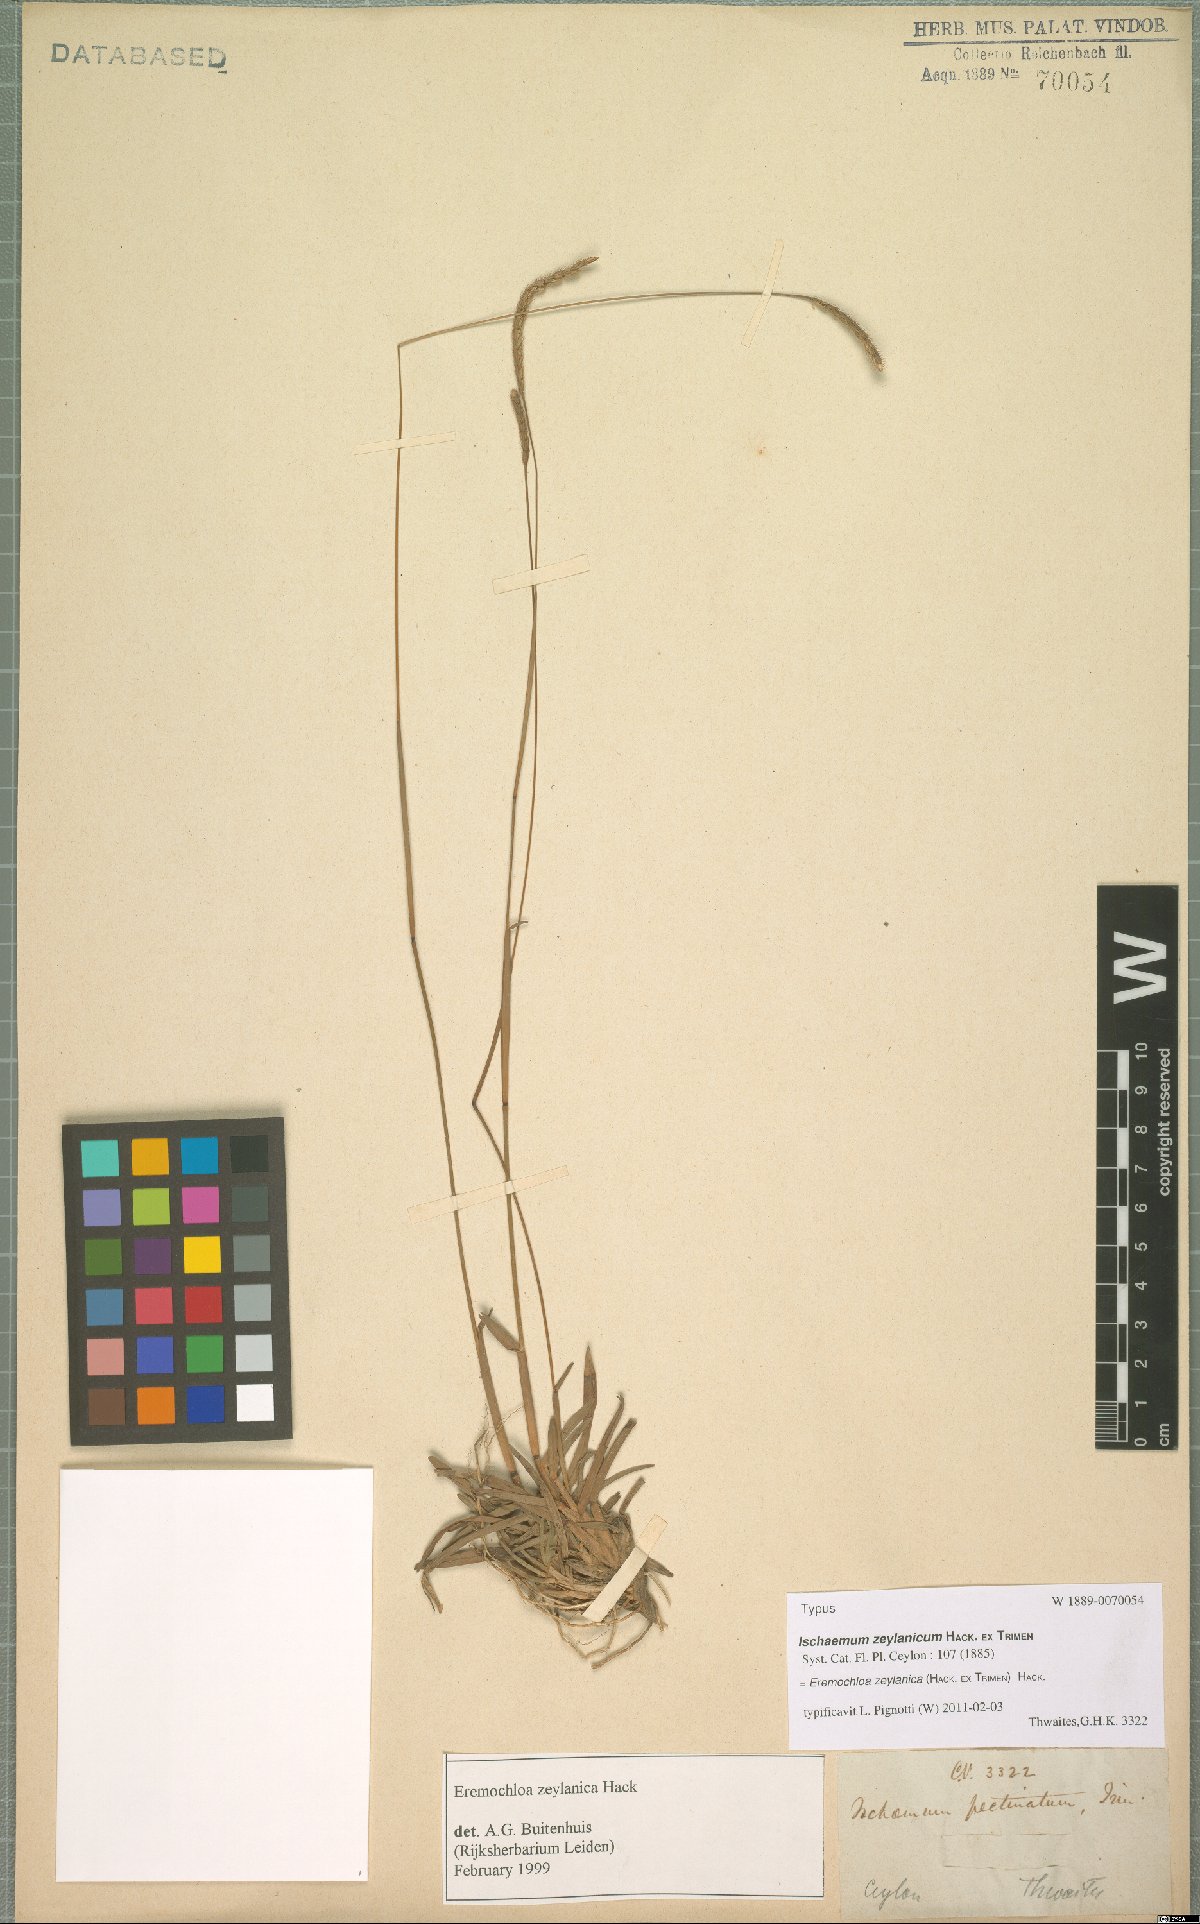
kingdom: Plantae
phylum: Tracheophyta
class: Liliopsida
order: Poales
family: Poaceae
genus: Eremochloa
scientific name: Eremochloa zeylanica
